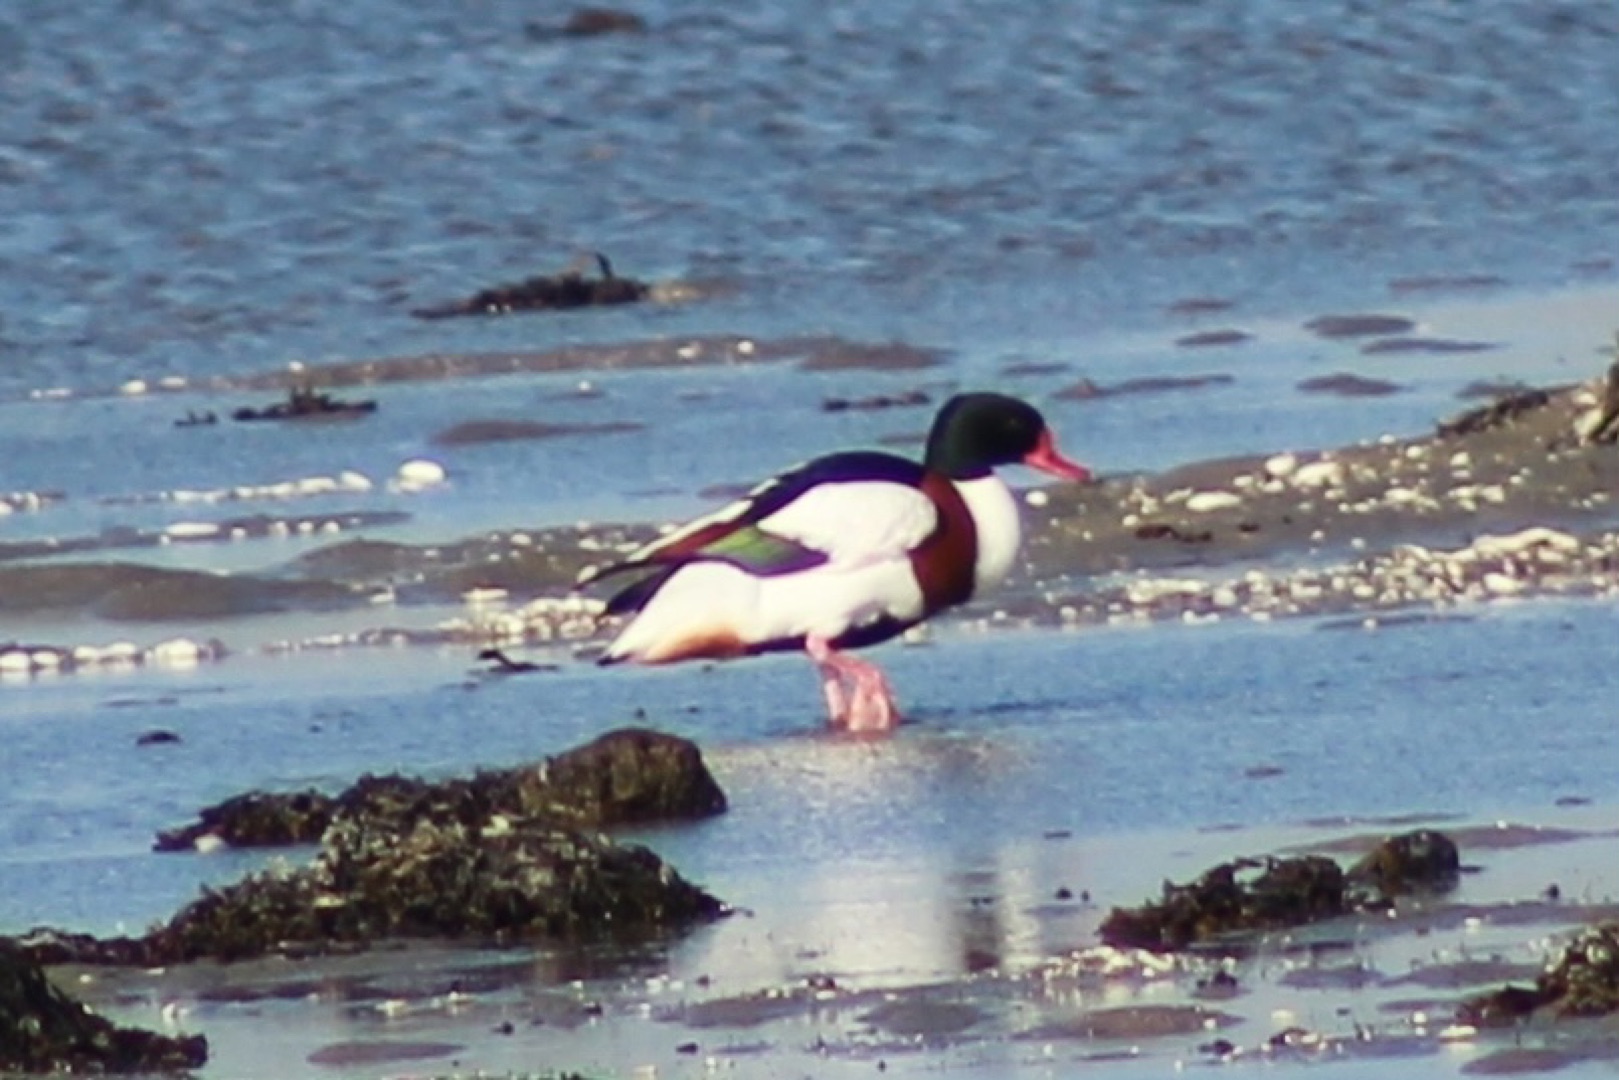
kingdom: Animalia
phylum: Chordata
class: Aves
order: Anseriformes
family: Anatidae
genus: Tadorna
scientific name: Tadorna tadorna
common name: Gravand
